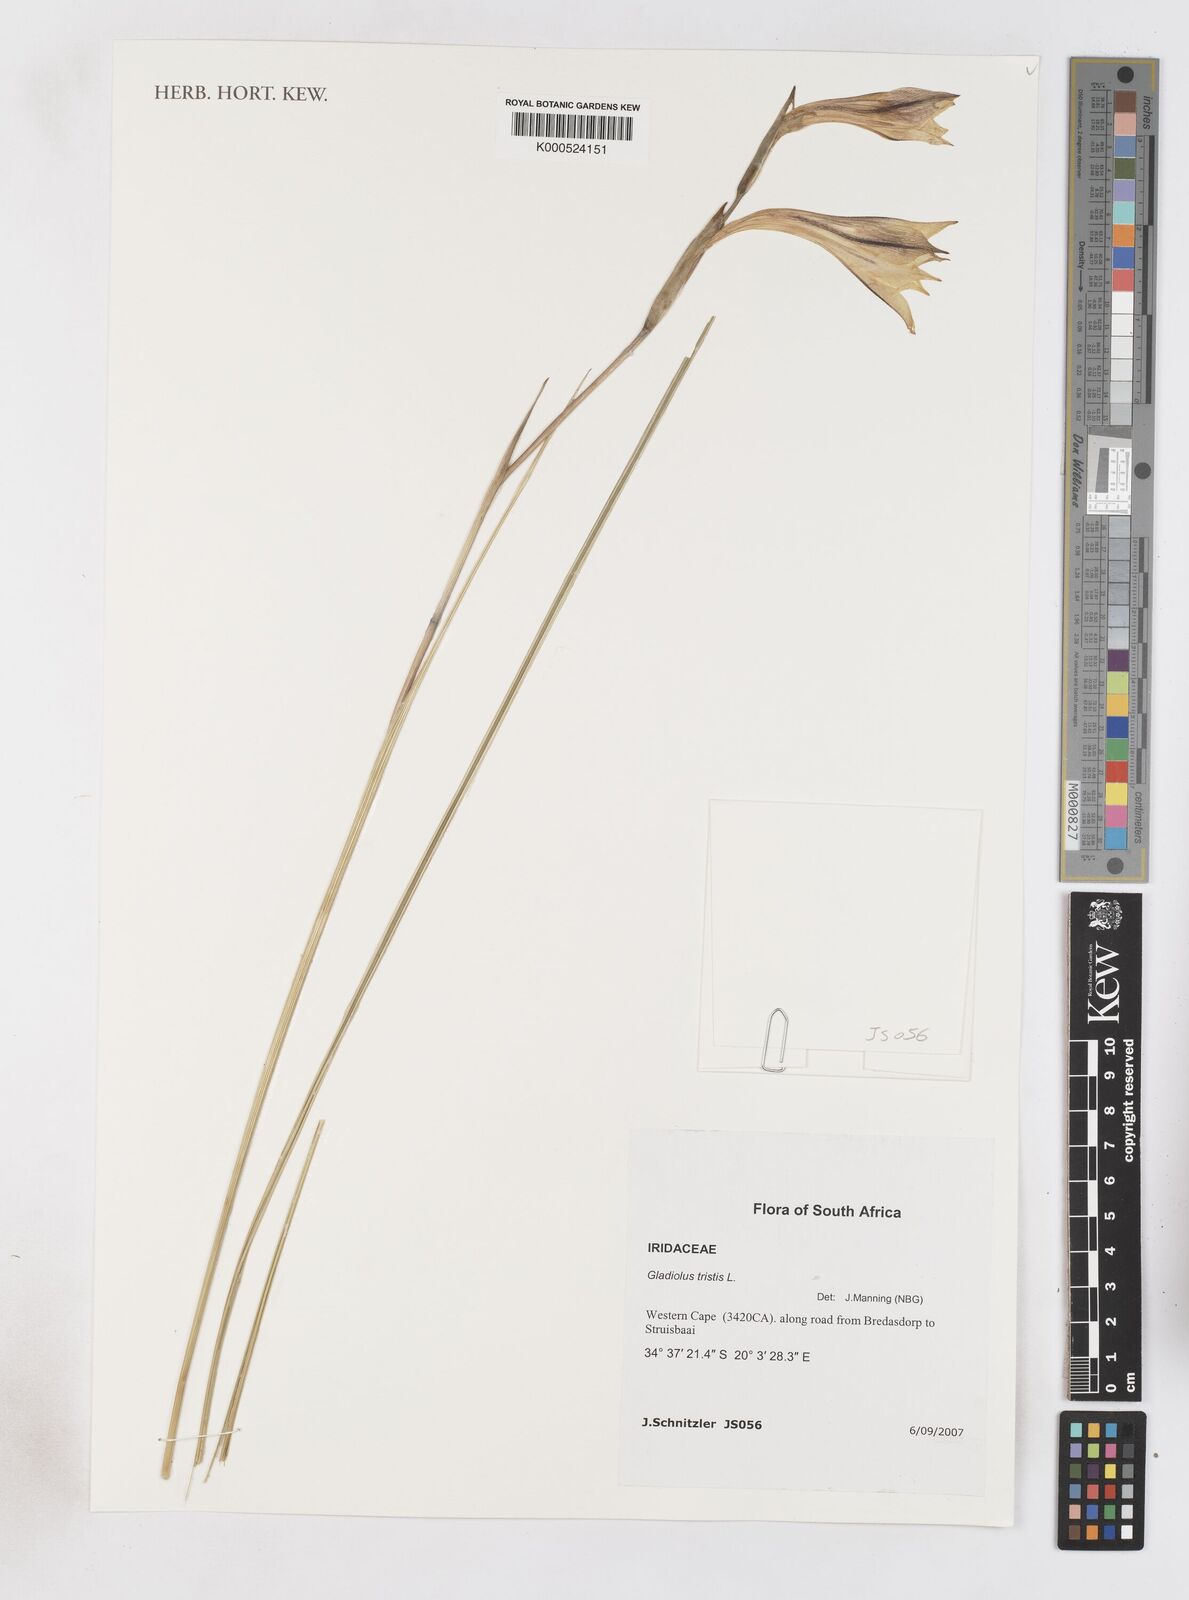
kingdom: Plantae
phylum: Tracheophyta
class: Liliopsida
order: Asparagales
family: Iridaceae
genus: Gladiolus
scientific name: Gladiolus tristis
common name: Ever-flowering gladiolus
